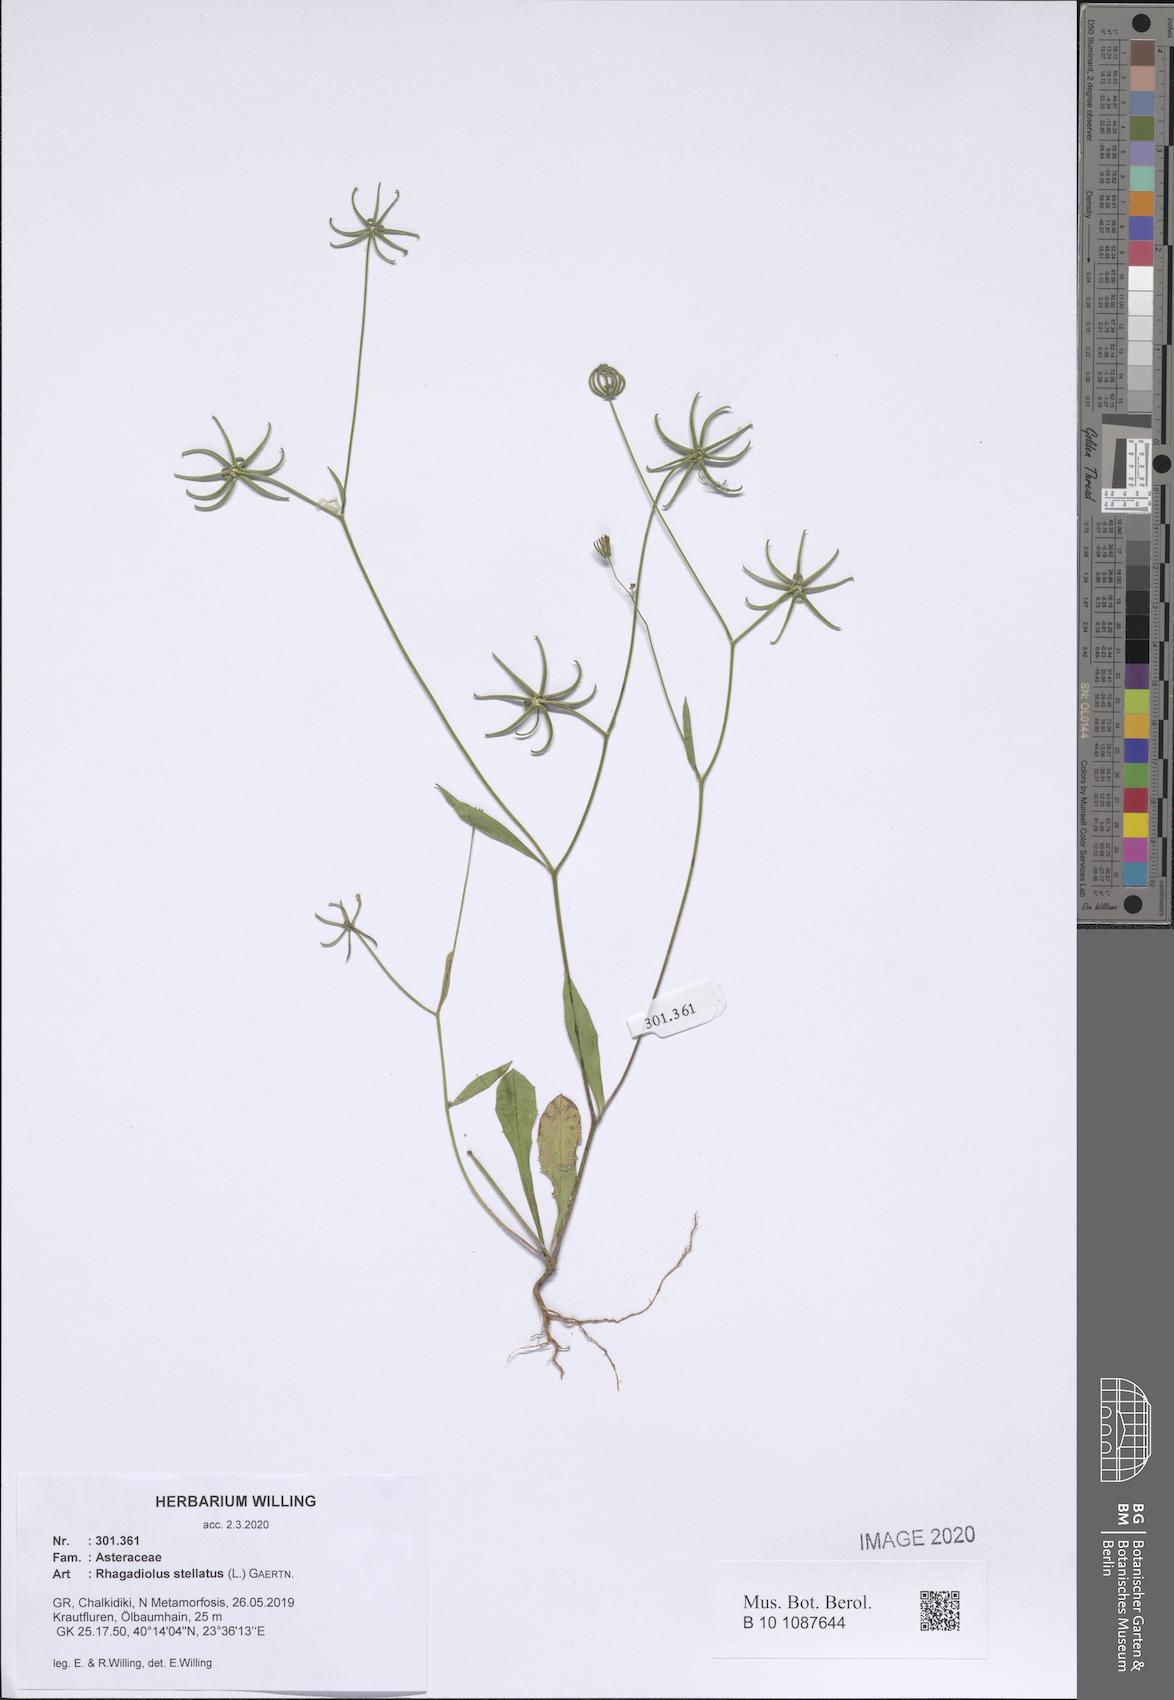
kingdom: Plantae
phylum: Tracheophyta
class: Magnoliopsida
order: Asterales
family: Asteraceae
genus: Rhagadiolus
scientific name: Rhagadiolus stellatus
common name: Star hawkbit
